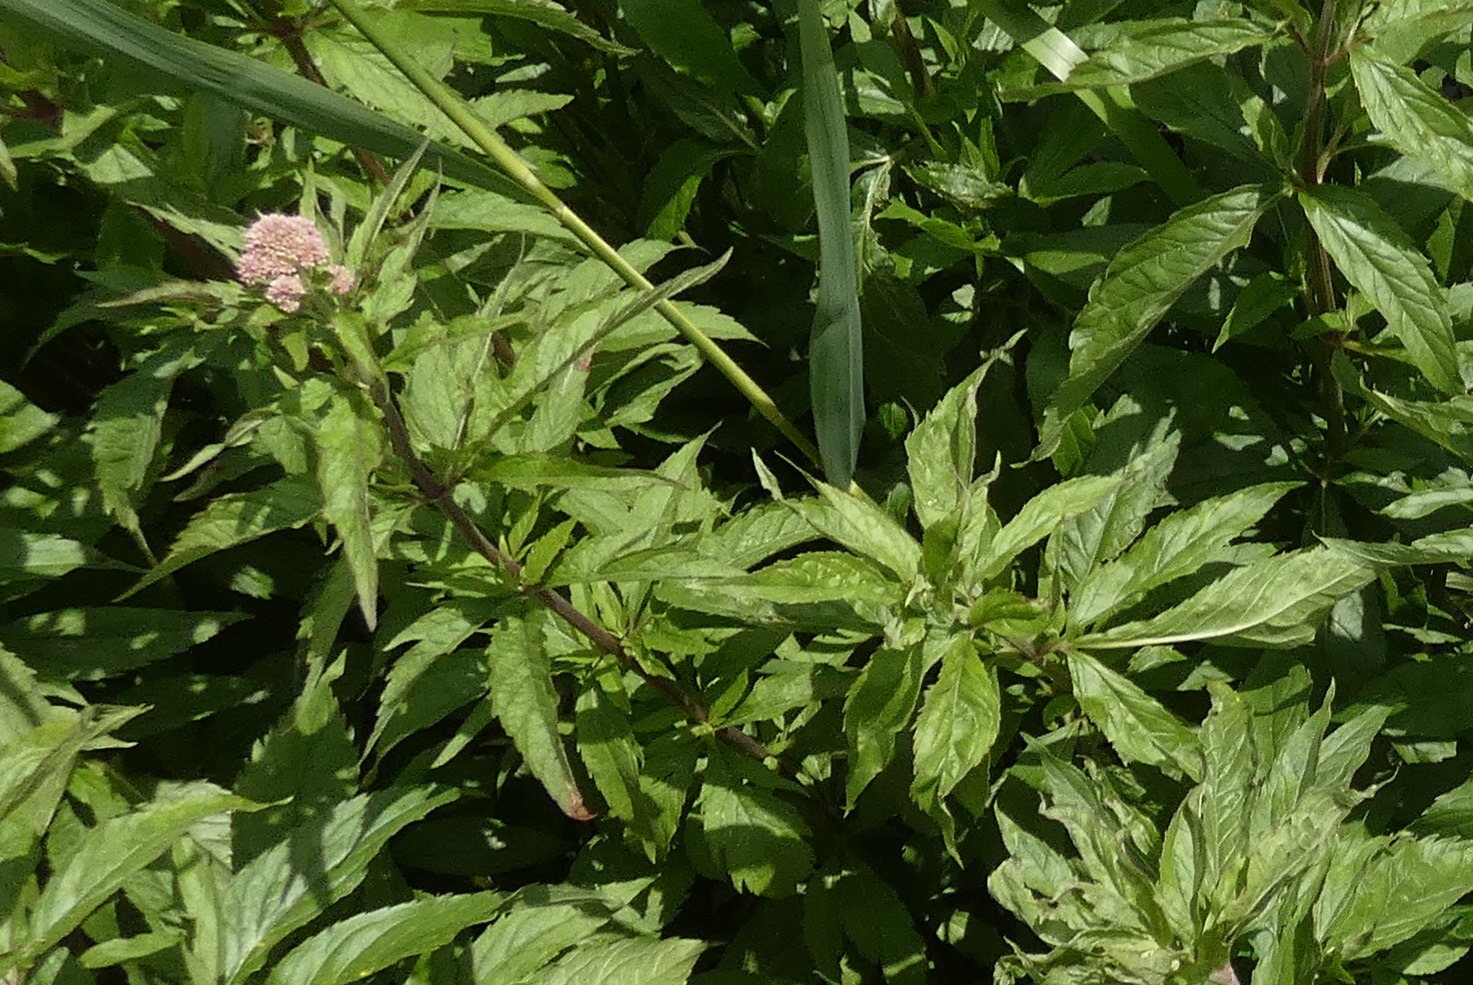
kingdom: Plantae
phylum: Tracheophyta
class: Magnoliopsida
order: Asterales
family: Asteraceae
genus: Eupatorium
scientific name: Eupatorium cannabinum
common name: Hjortetrøst
